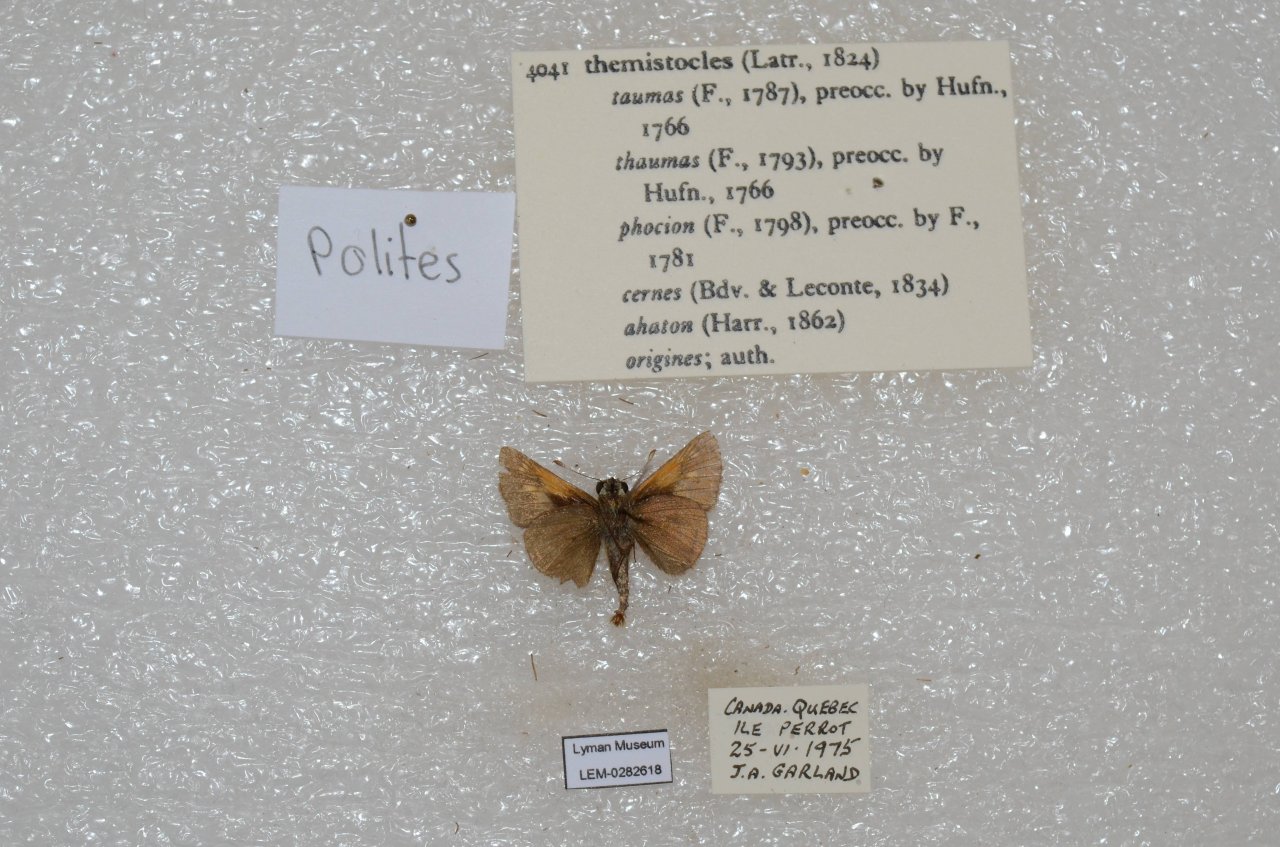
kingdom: Animalia
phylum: Arthropoda
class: Insecta
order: Lepidoptera
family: Hesperiidae
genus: Polites
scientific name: Polites themistocles
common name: Tawny-edged Skipper
